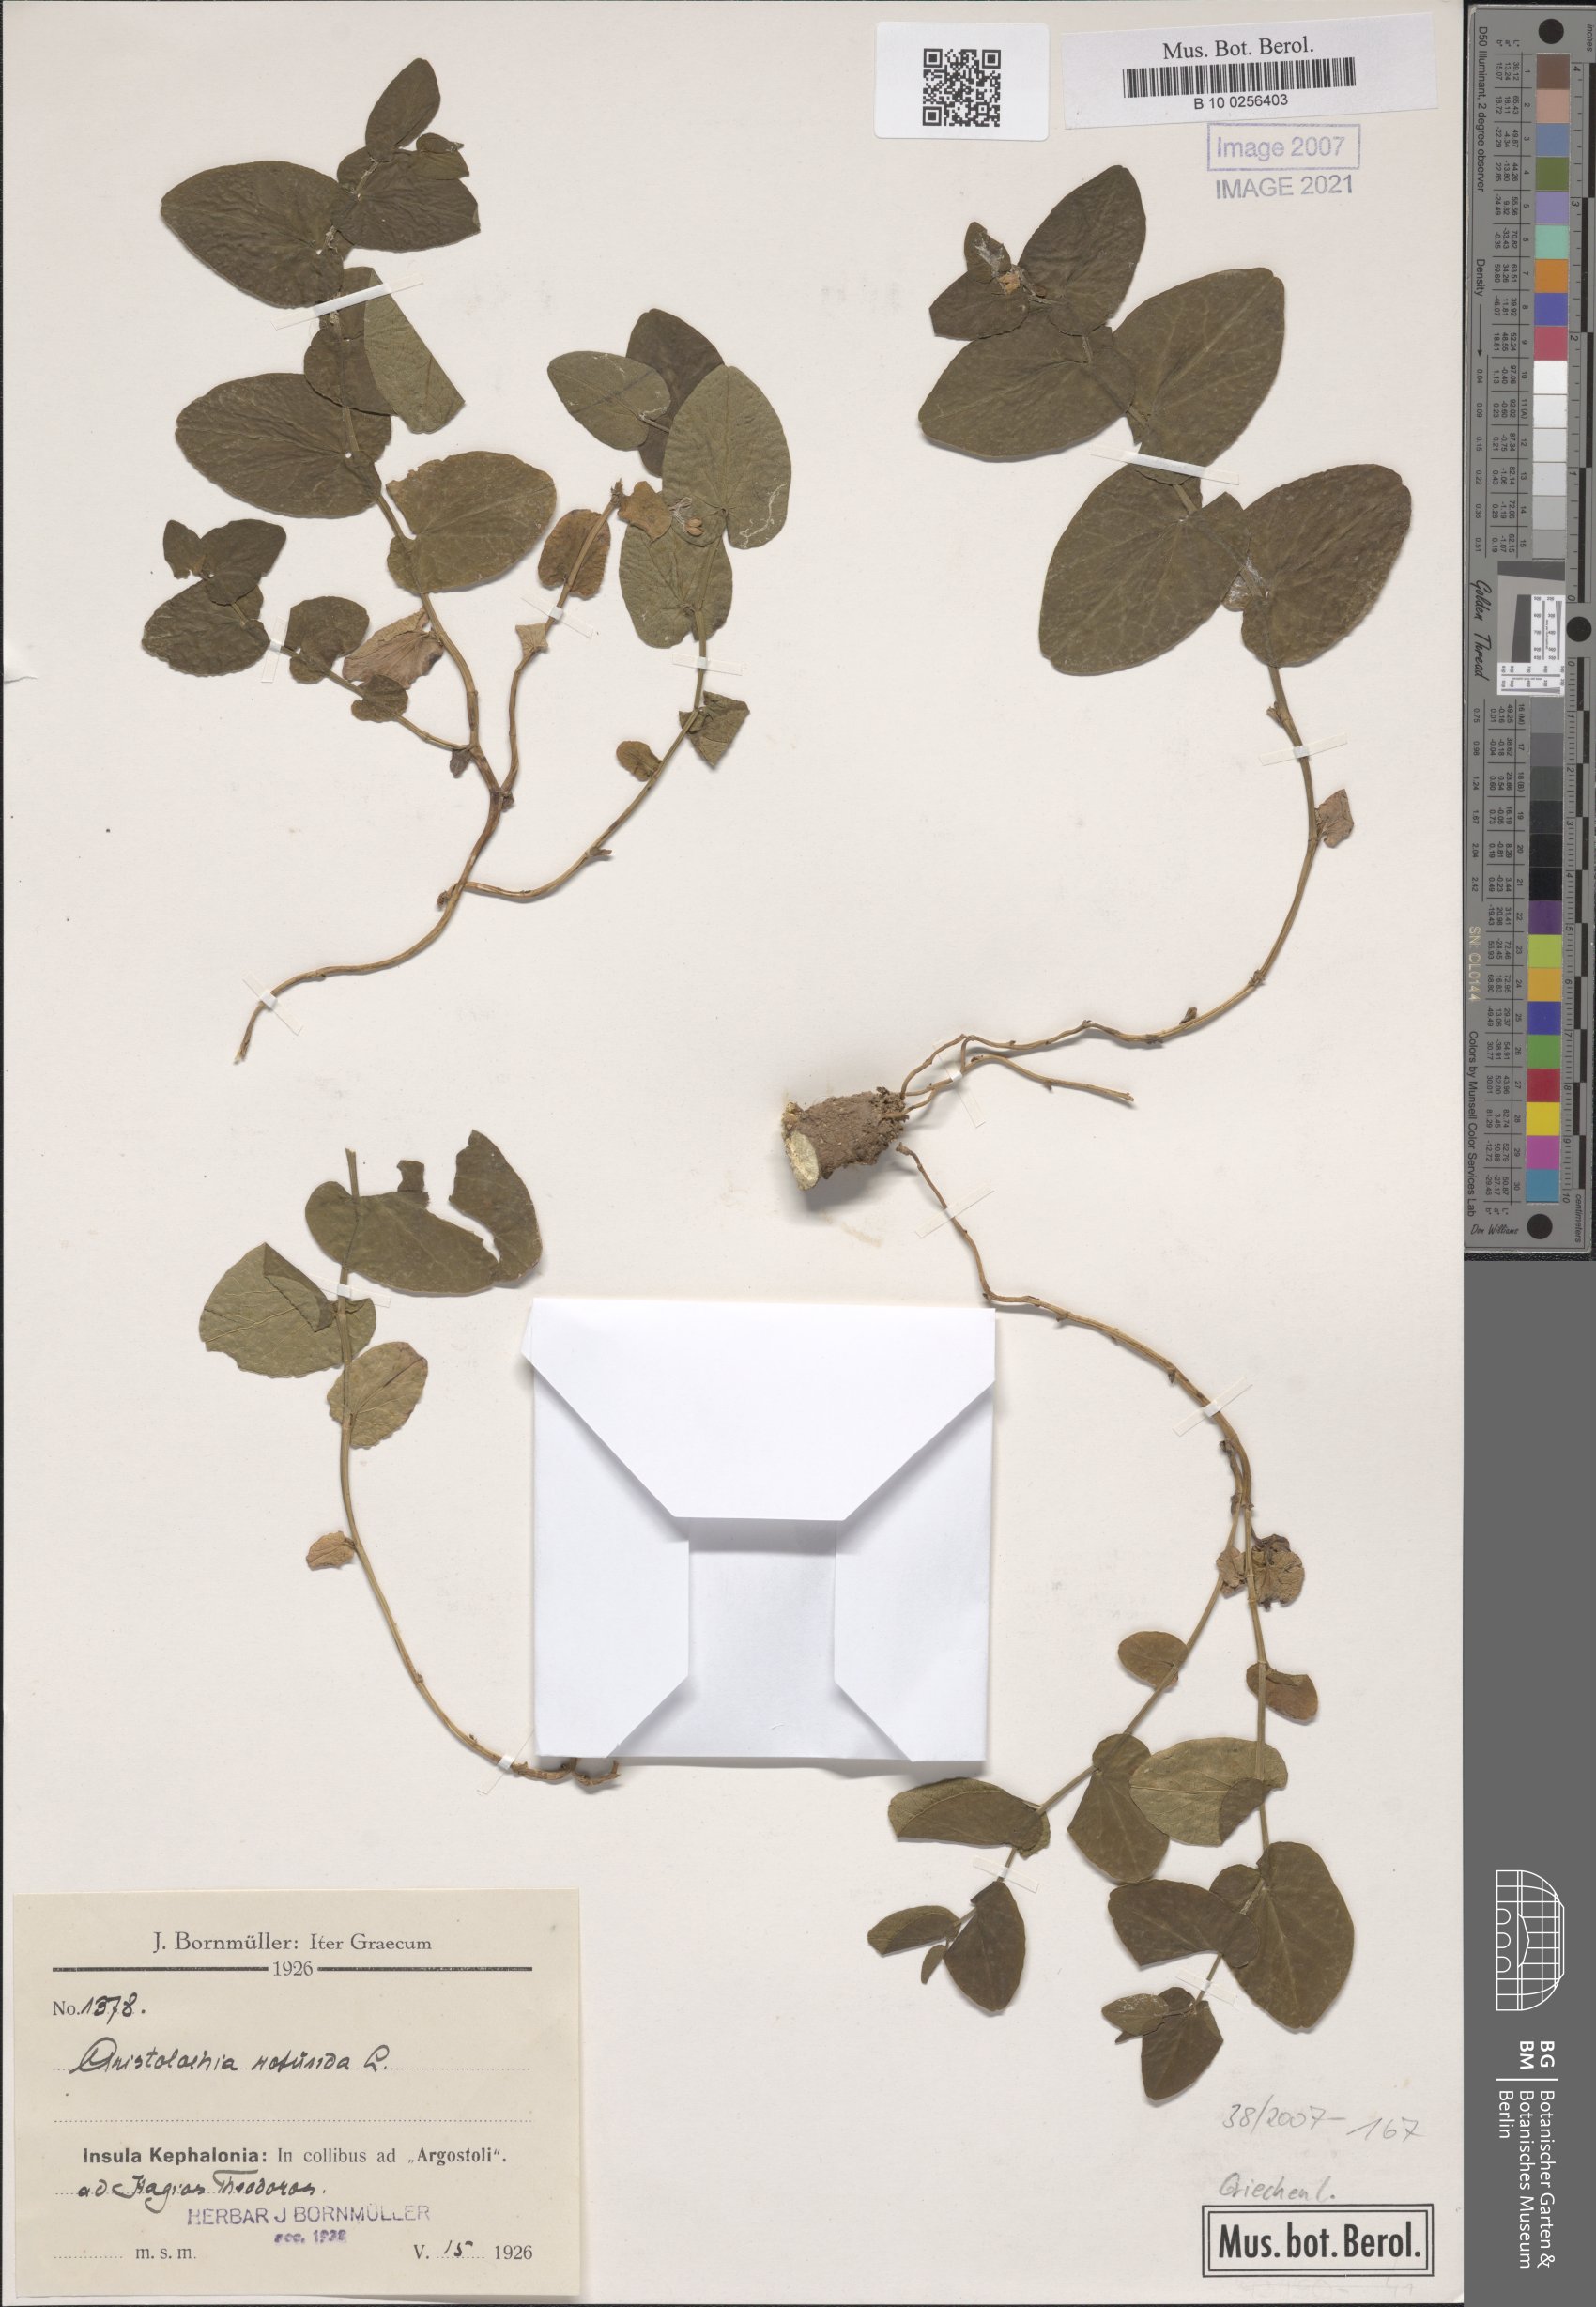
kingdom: Plantae
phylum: Tracheophyta
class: Magnoliopsida
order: Piperales
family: Aristolochiaceae
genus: Aristolochia
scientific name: Aristolochia rotunda
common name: Smearwort
